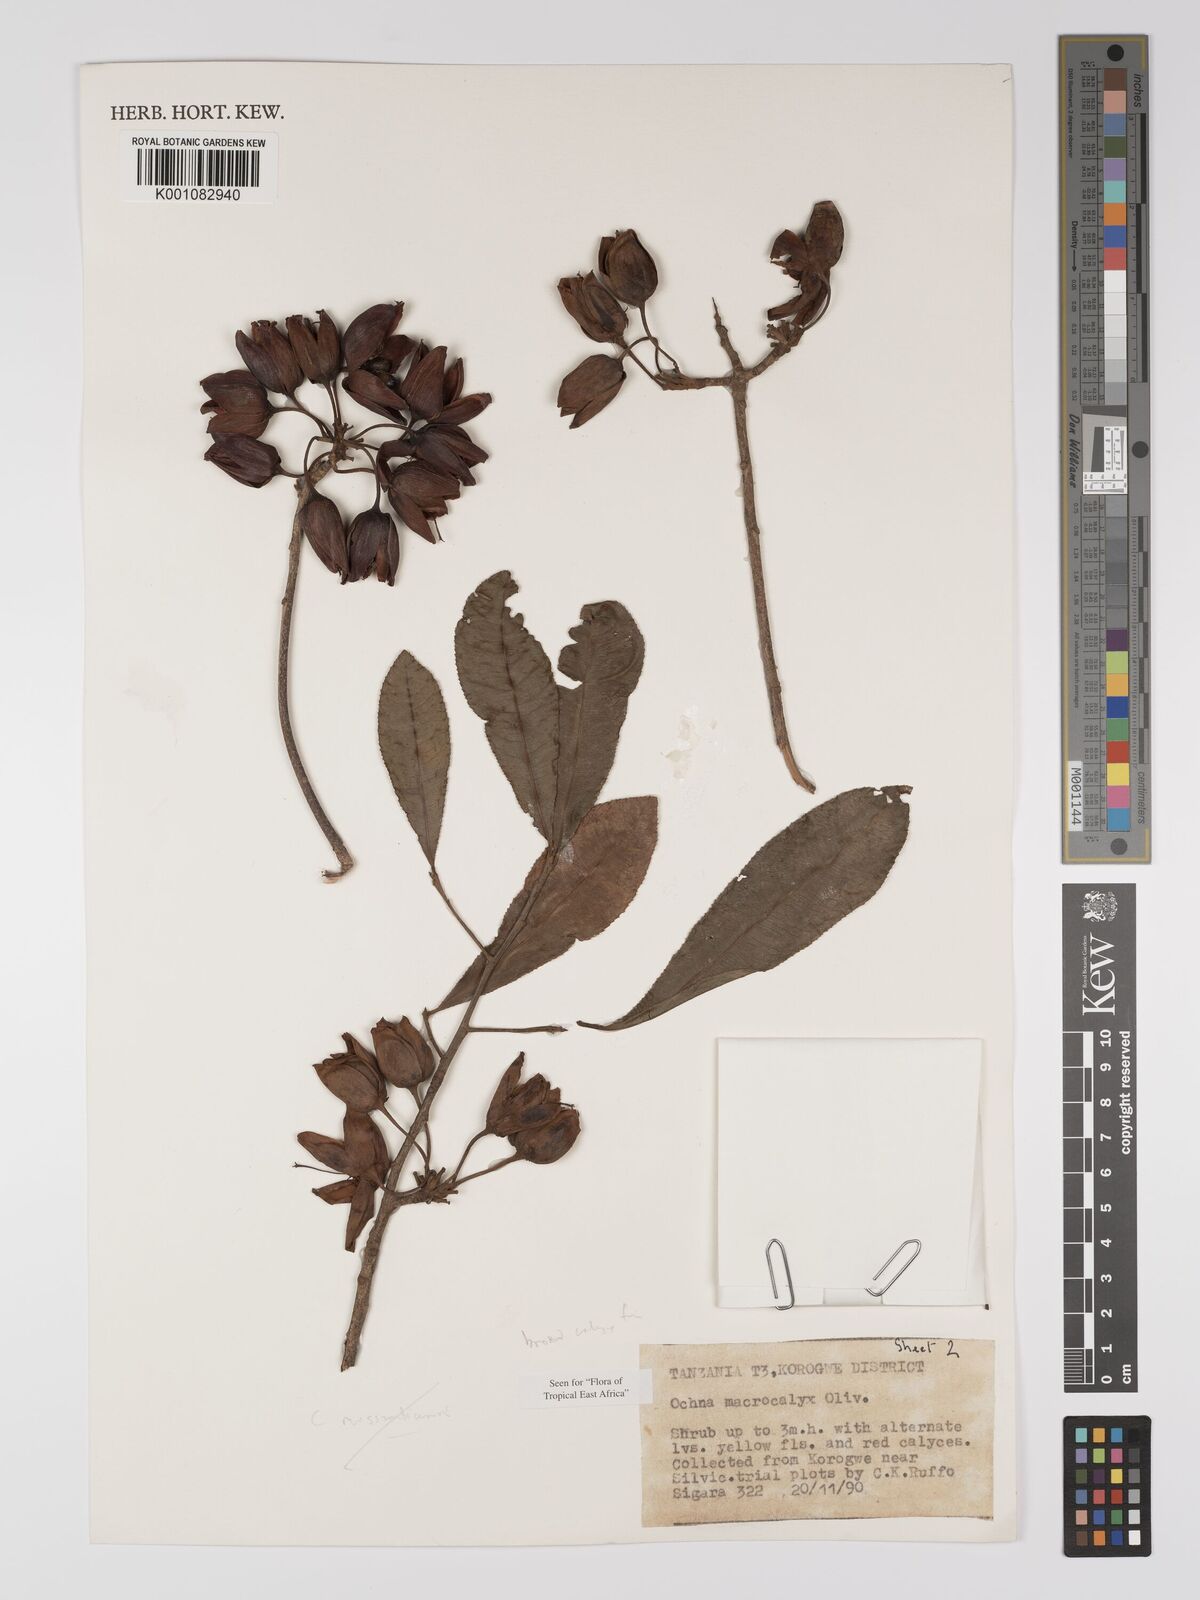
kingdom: Plantae
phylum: Tracheophyta
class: Magnoliopsida
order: Malpighiales
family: Ochnaceae
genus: Ochna
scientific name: Ochna macrocalyx
